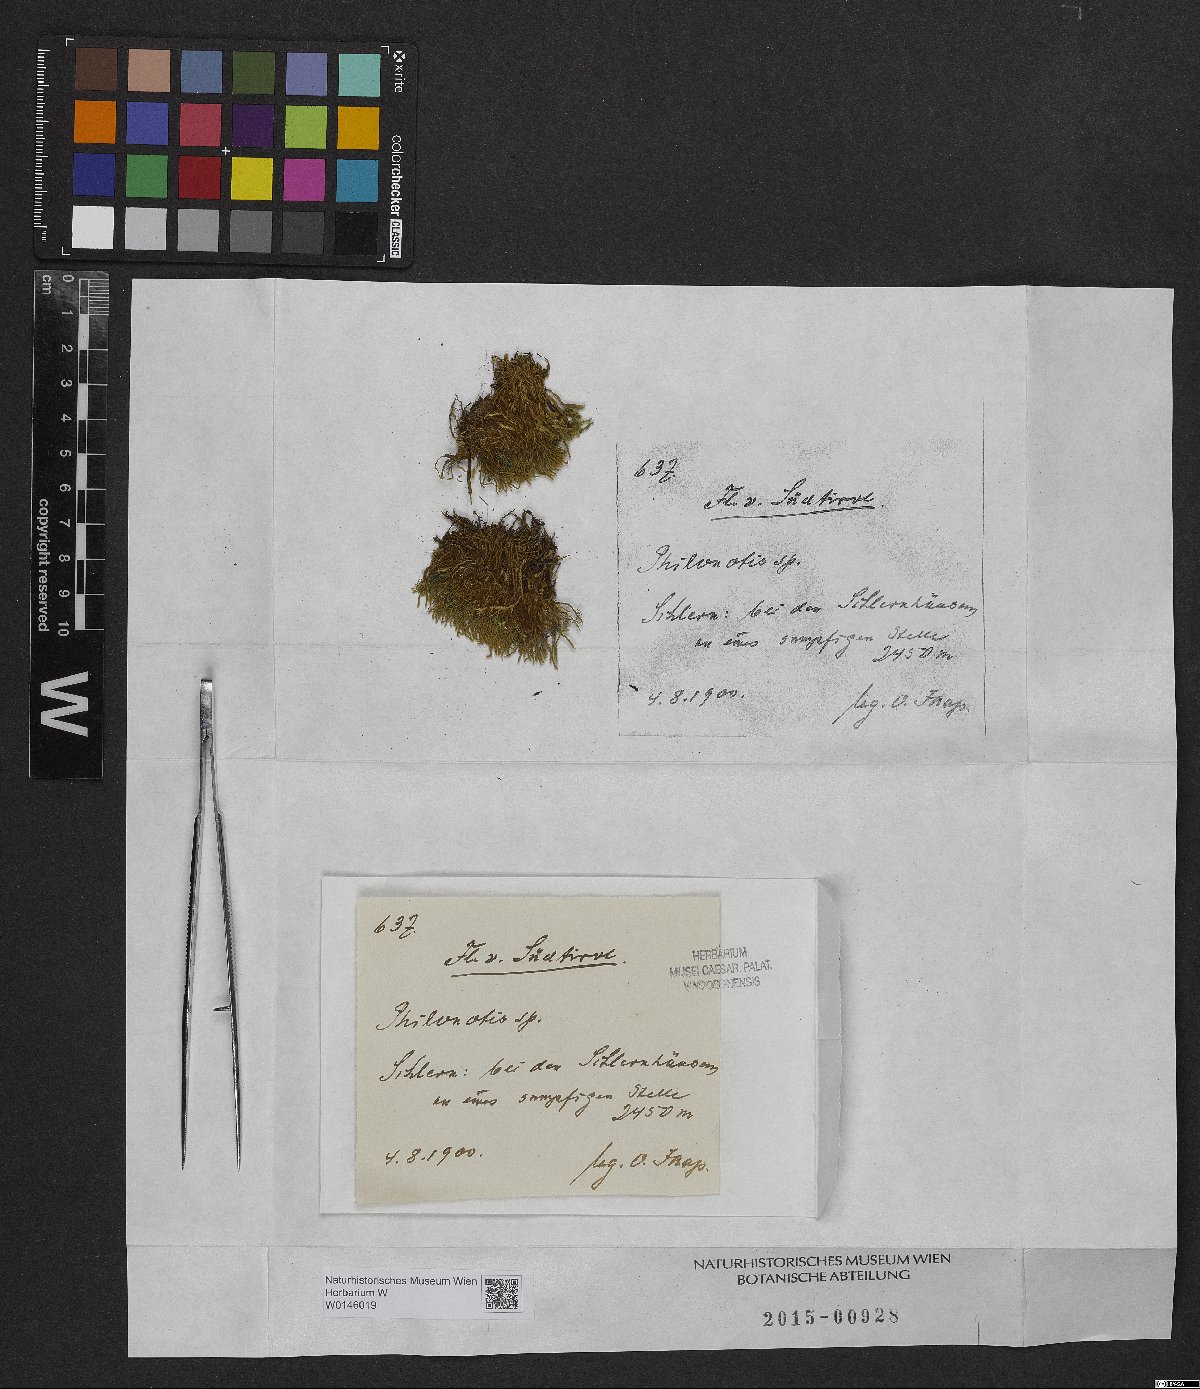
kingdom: Plantae
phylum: Bryophyta
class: Bryopsida
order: Bartramiales
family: Bartramiaceae
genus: Philonotis
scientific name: Philonotis
